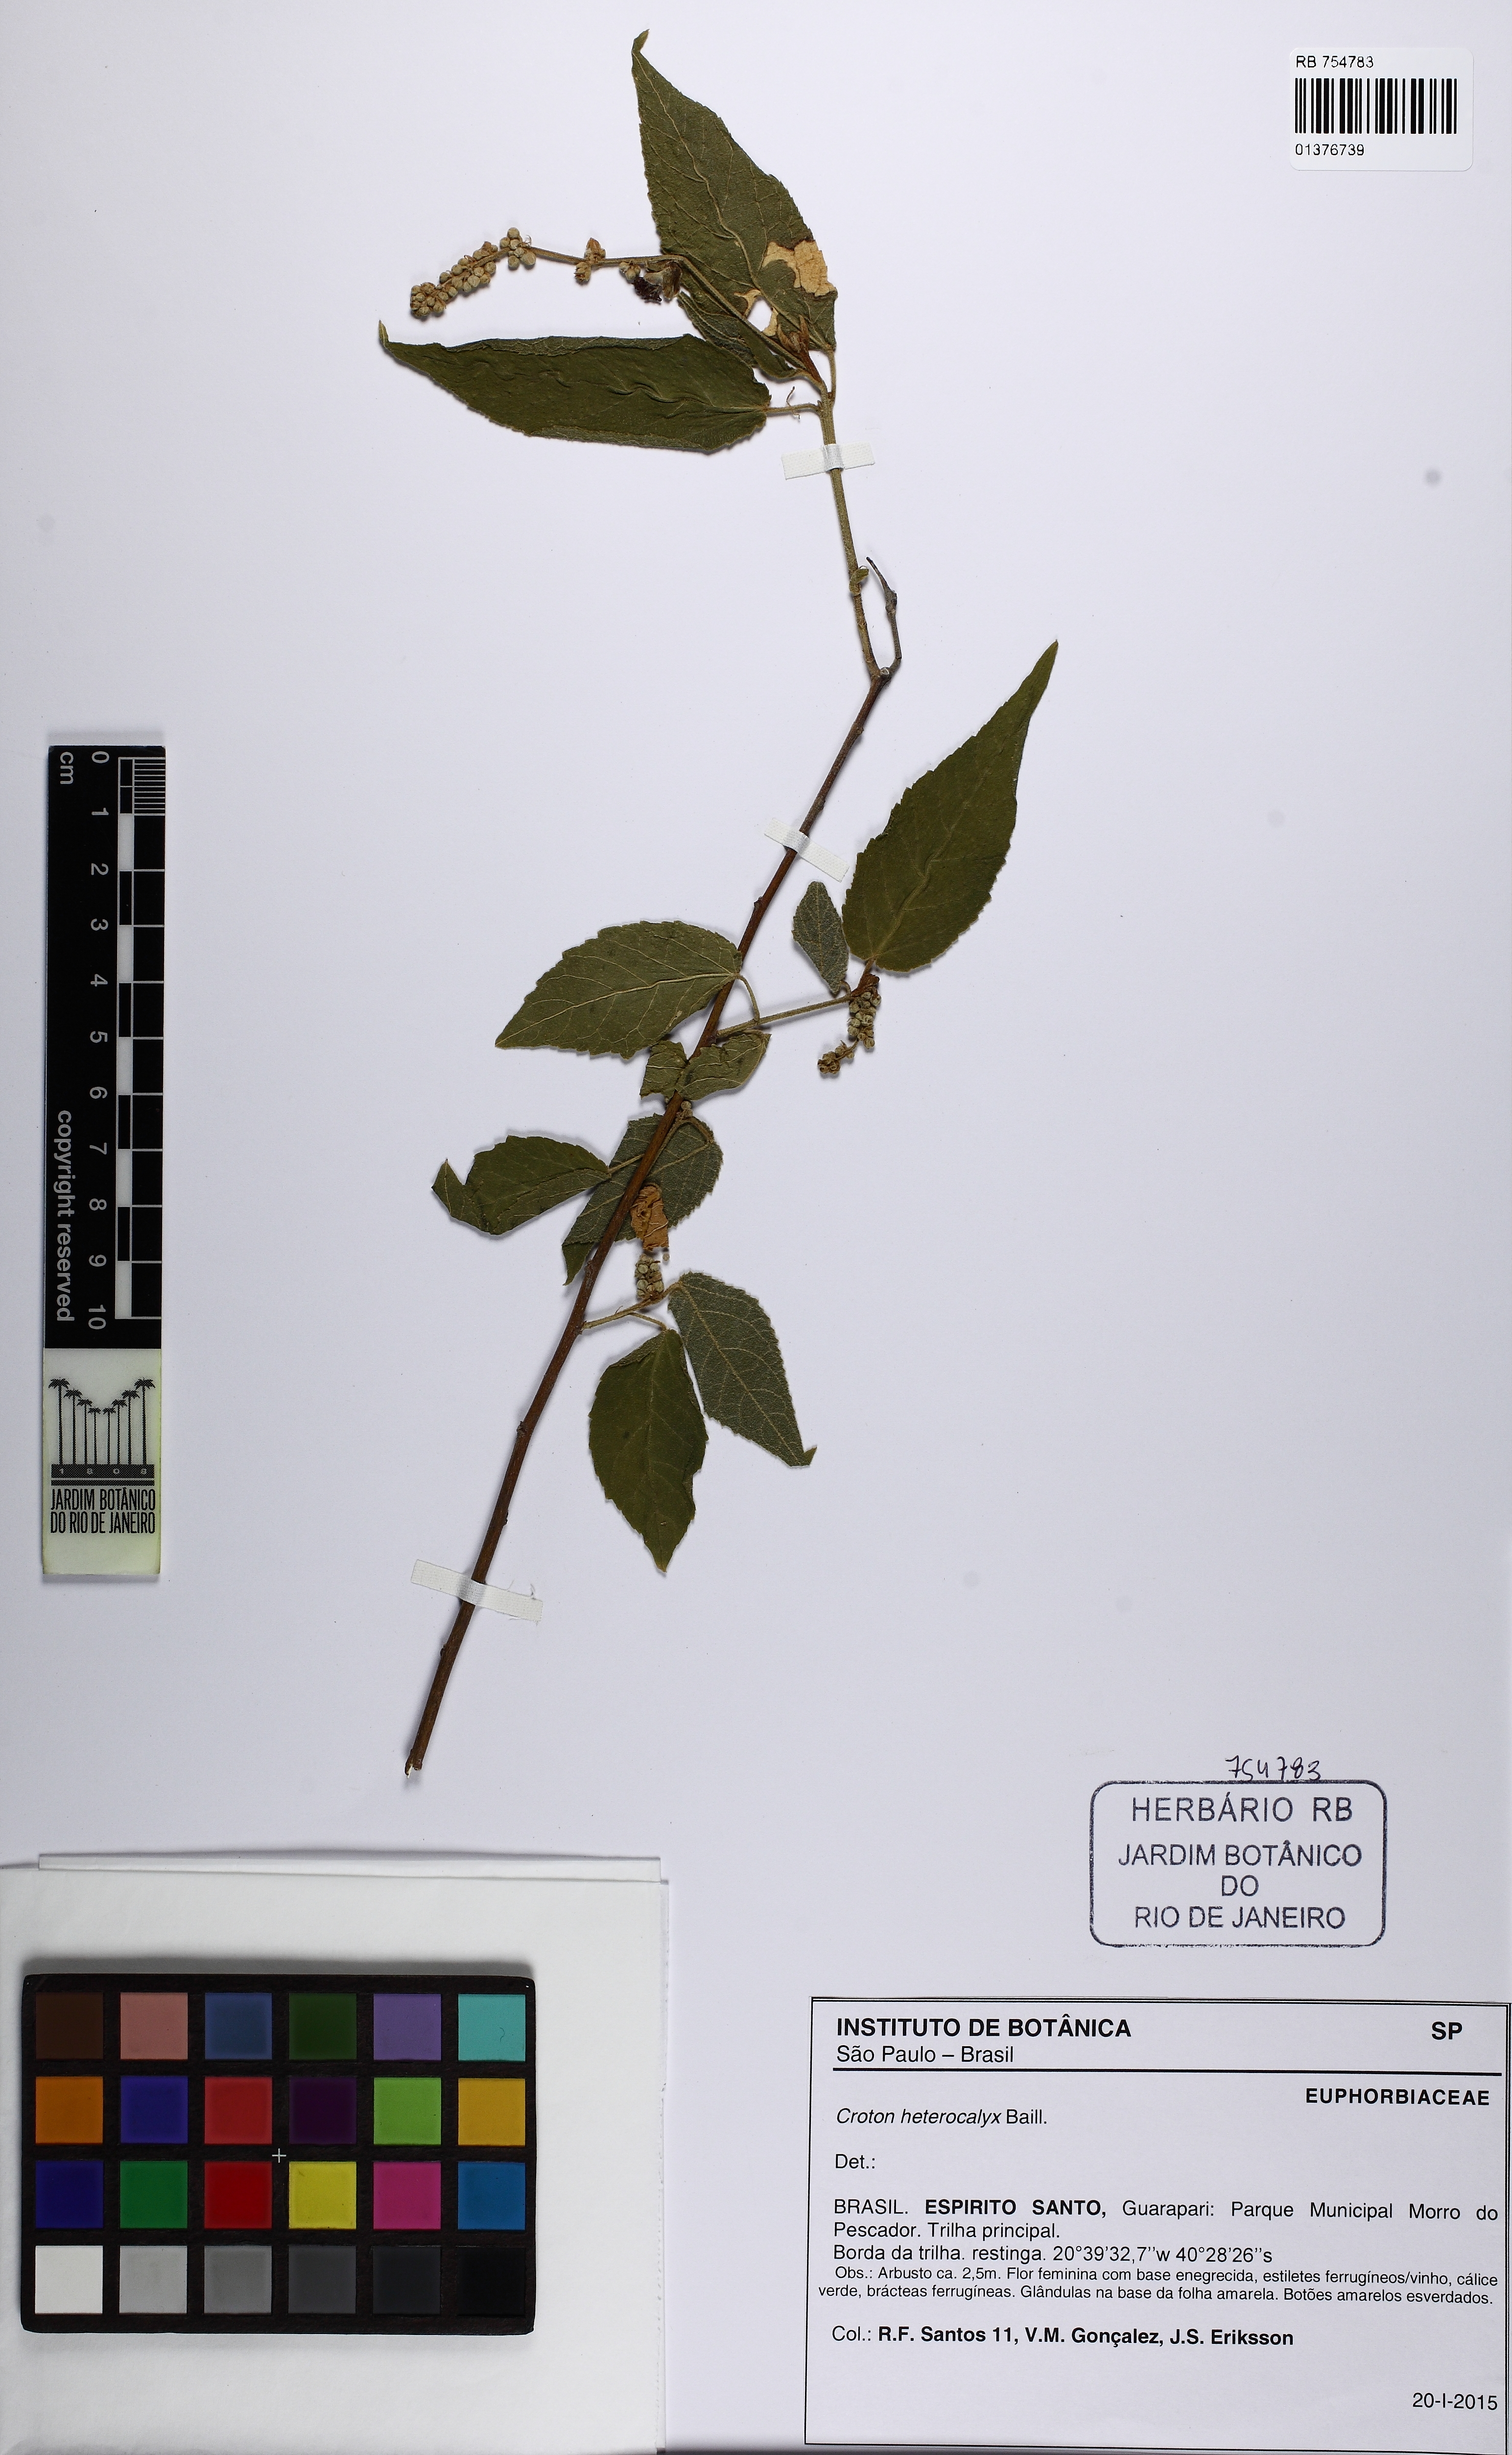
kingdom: Plantae
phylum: Tracheophyta
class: Magnoliopsida
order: Malpighiales
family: Euphorbiaceae
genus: Croton
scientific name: Croton
